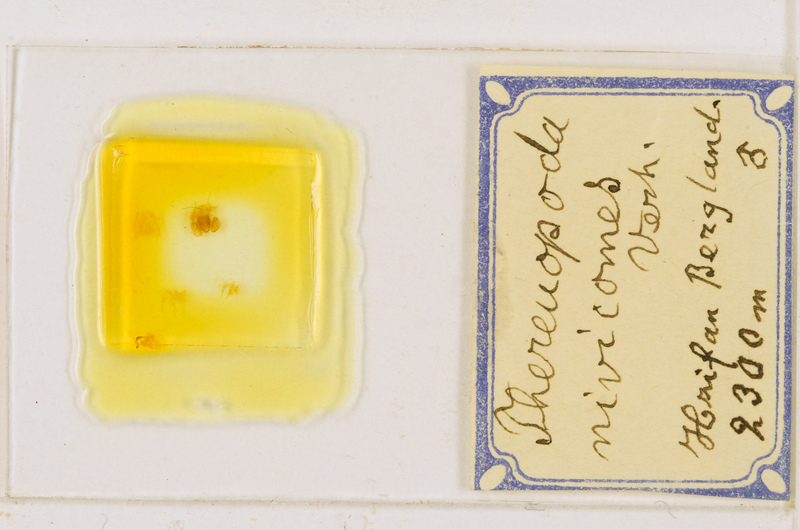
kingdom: Animalia
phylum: Arthropoda
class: Chilopoda
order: Scutigeromorpha
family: Scutigeridae
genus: Thereuopoda
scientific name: Thereuopoda longicornis
